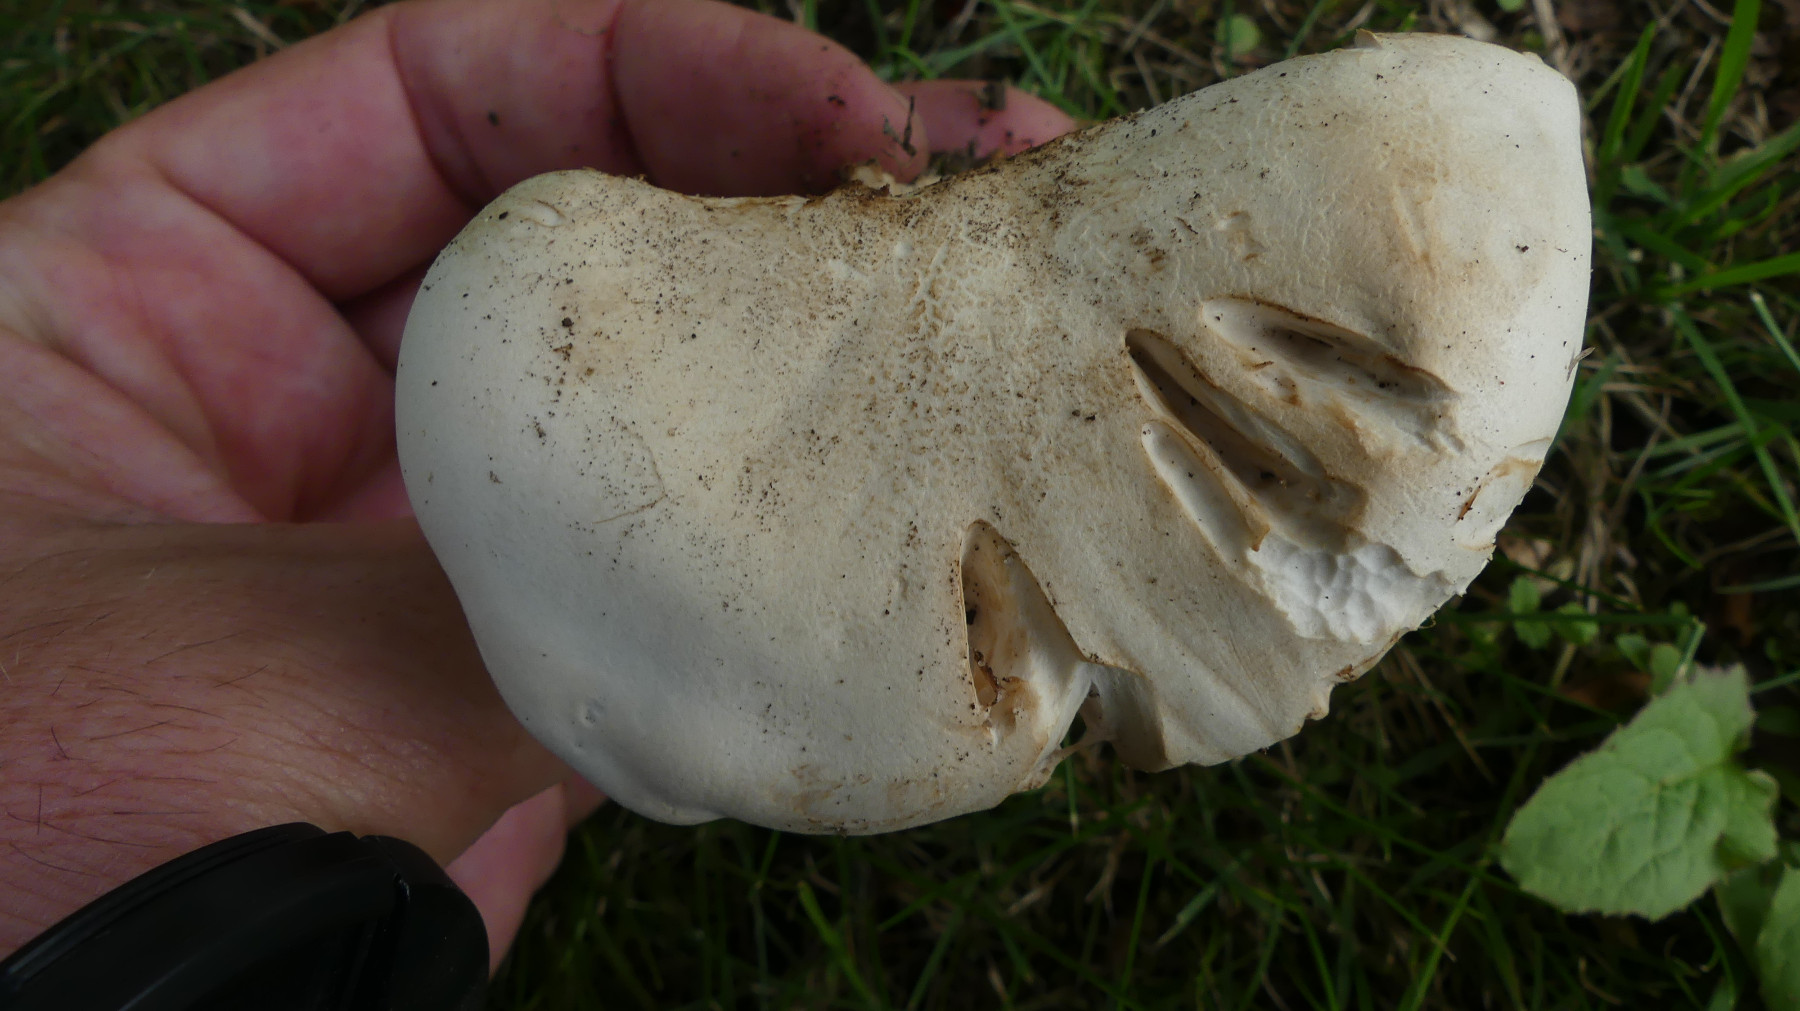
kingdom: Fungi
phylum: Basidiomycota
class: Agaricomycetes
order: Agaricales
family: Tricholomataceae
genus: Aspropaxillus
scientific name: Aspropaxillus giganteus
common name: kæmpe-tragtridderhat
